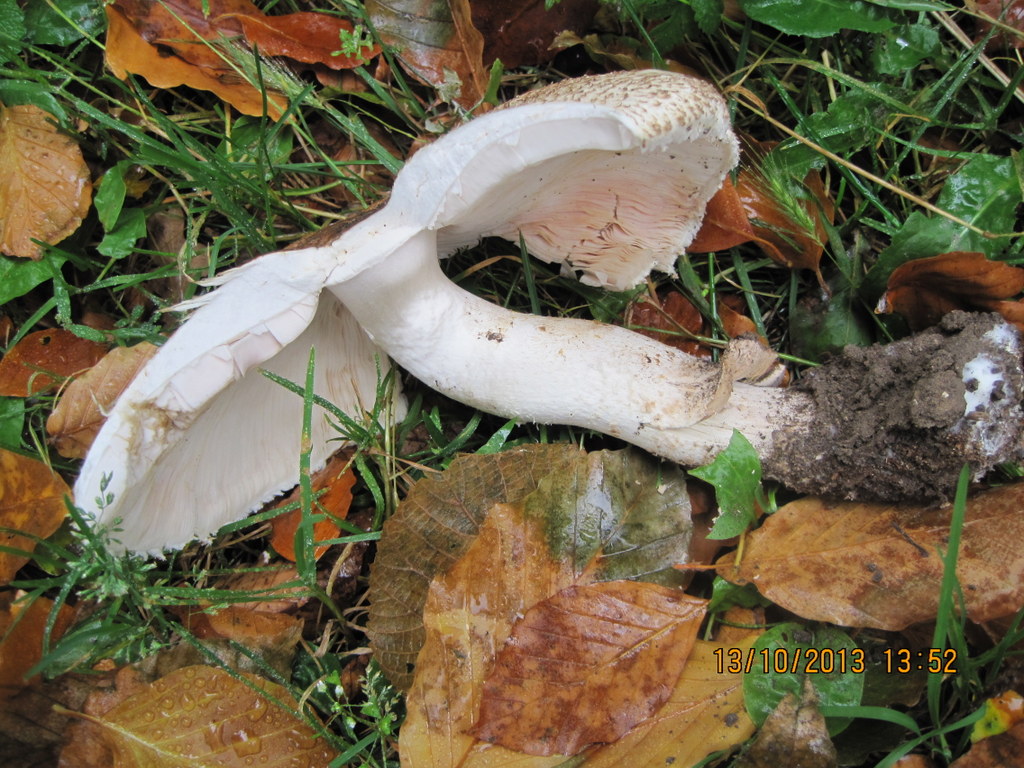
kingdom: Fungi
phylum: Basidiomycota
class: Agaricomycetes
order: Agaricales
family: Agaricaceae
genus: Agaricus
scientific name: Agaricus augustus
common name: prægtig champignon
